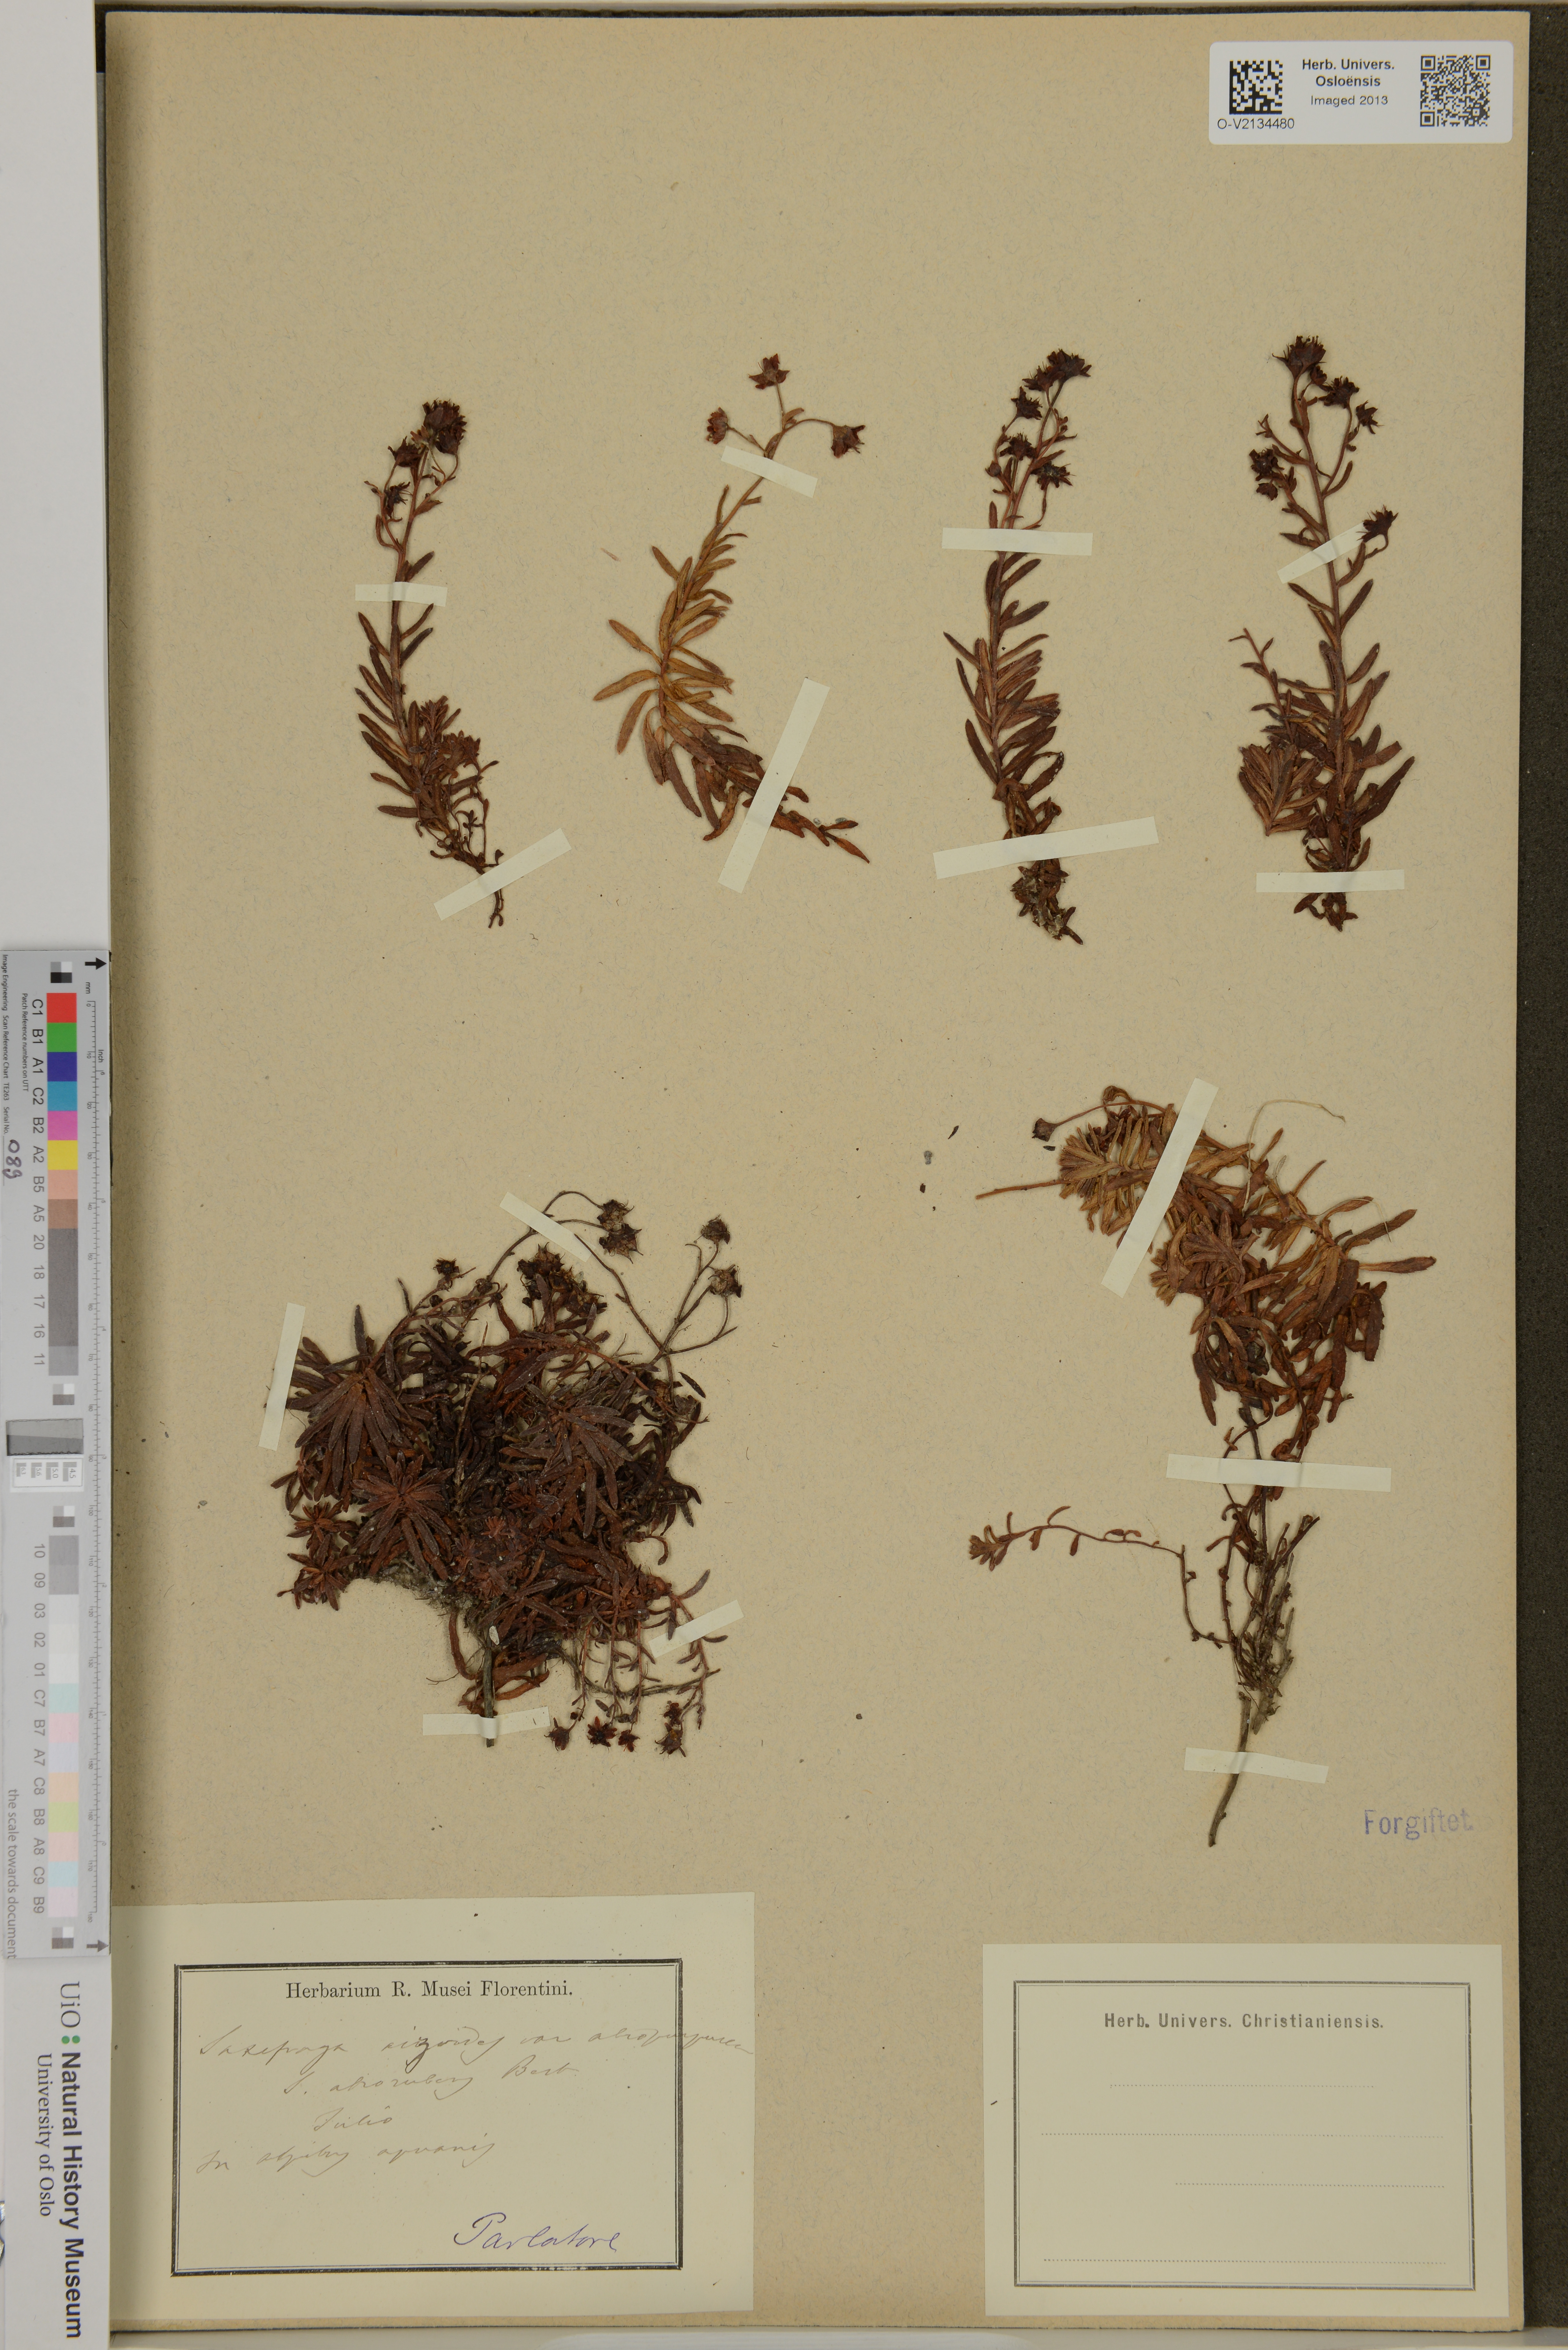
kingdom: Plantae
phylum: Tracheophyta
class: Magnoliopsida
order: Saxifragales
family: Saxifragaceae
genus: Saxifraga
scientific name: Saxifraga aizoides
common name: Yellow mountain saxifrage
